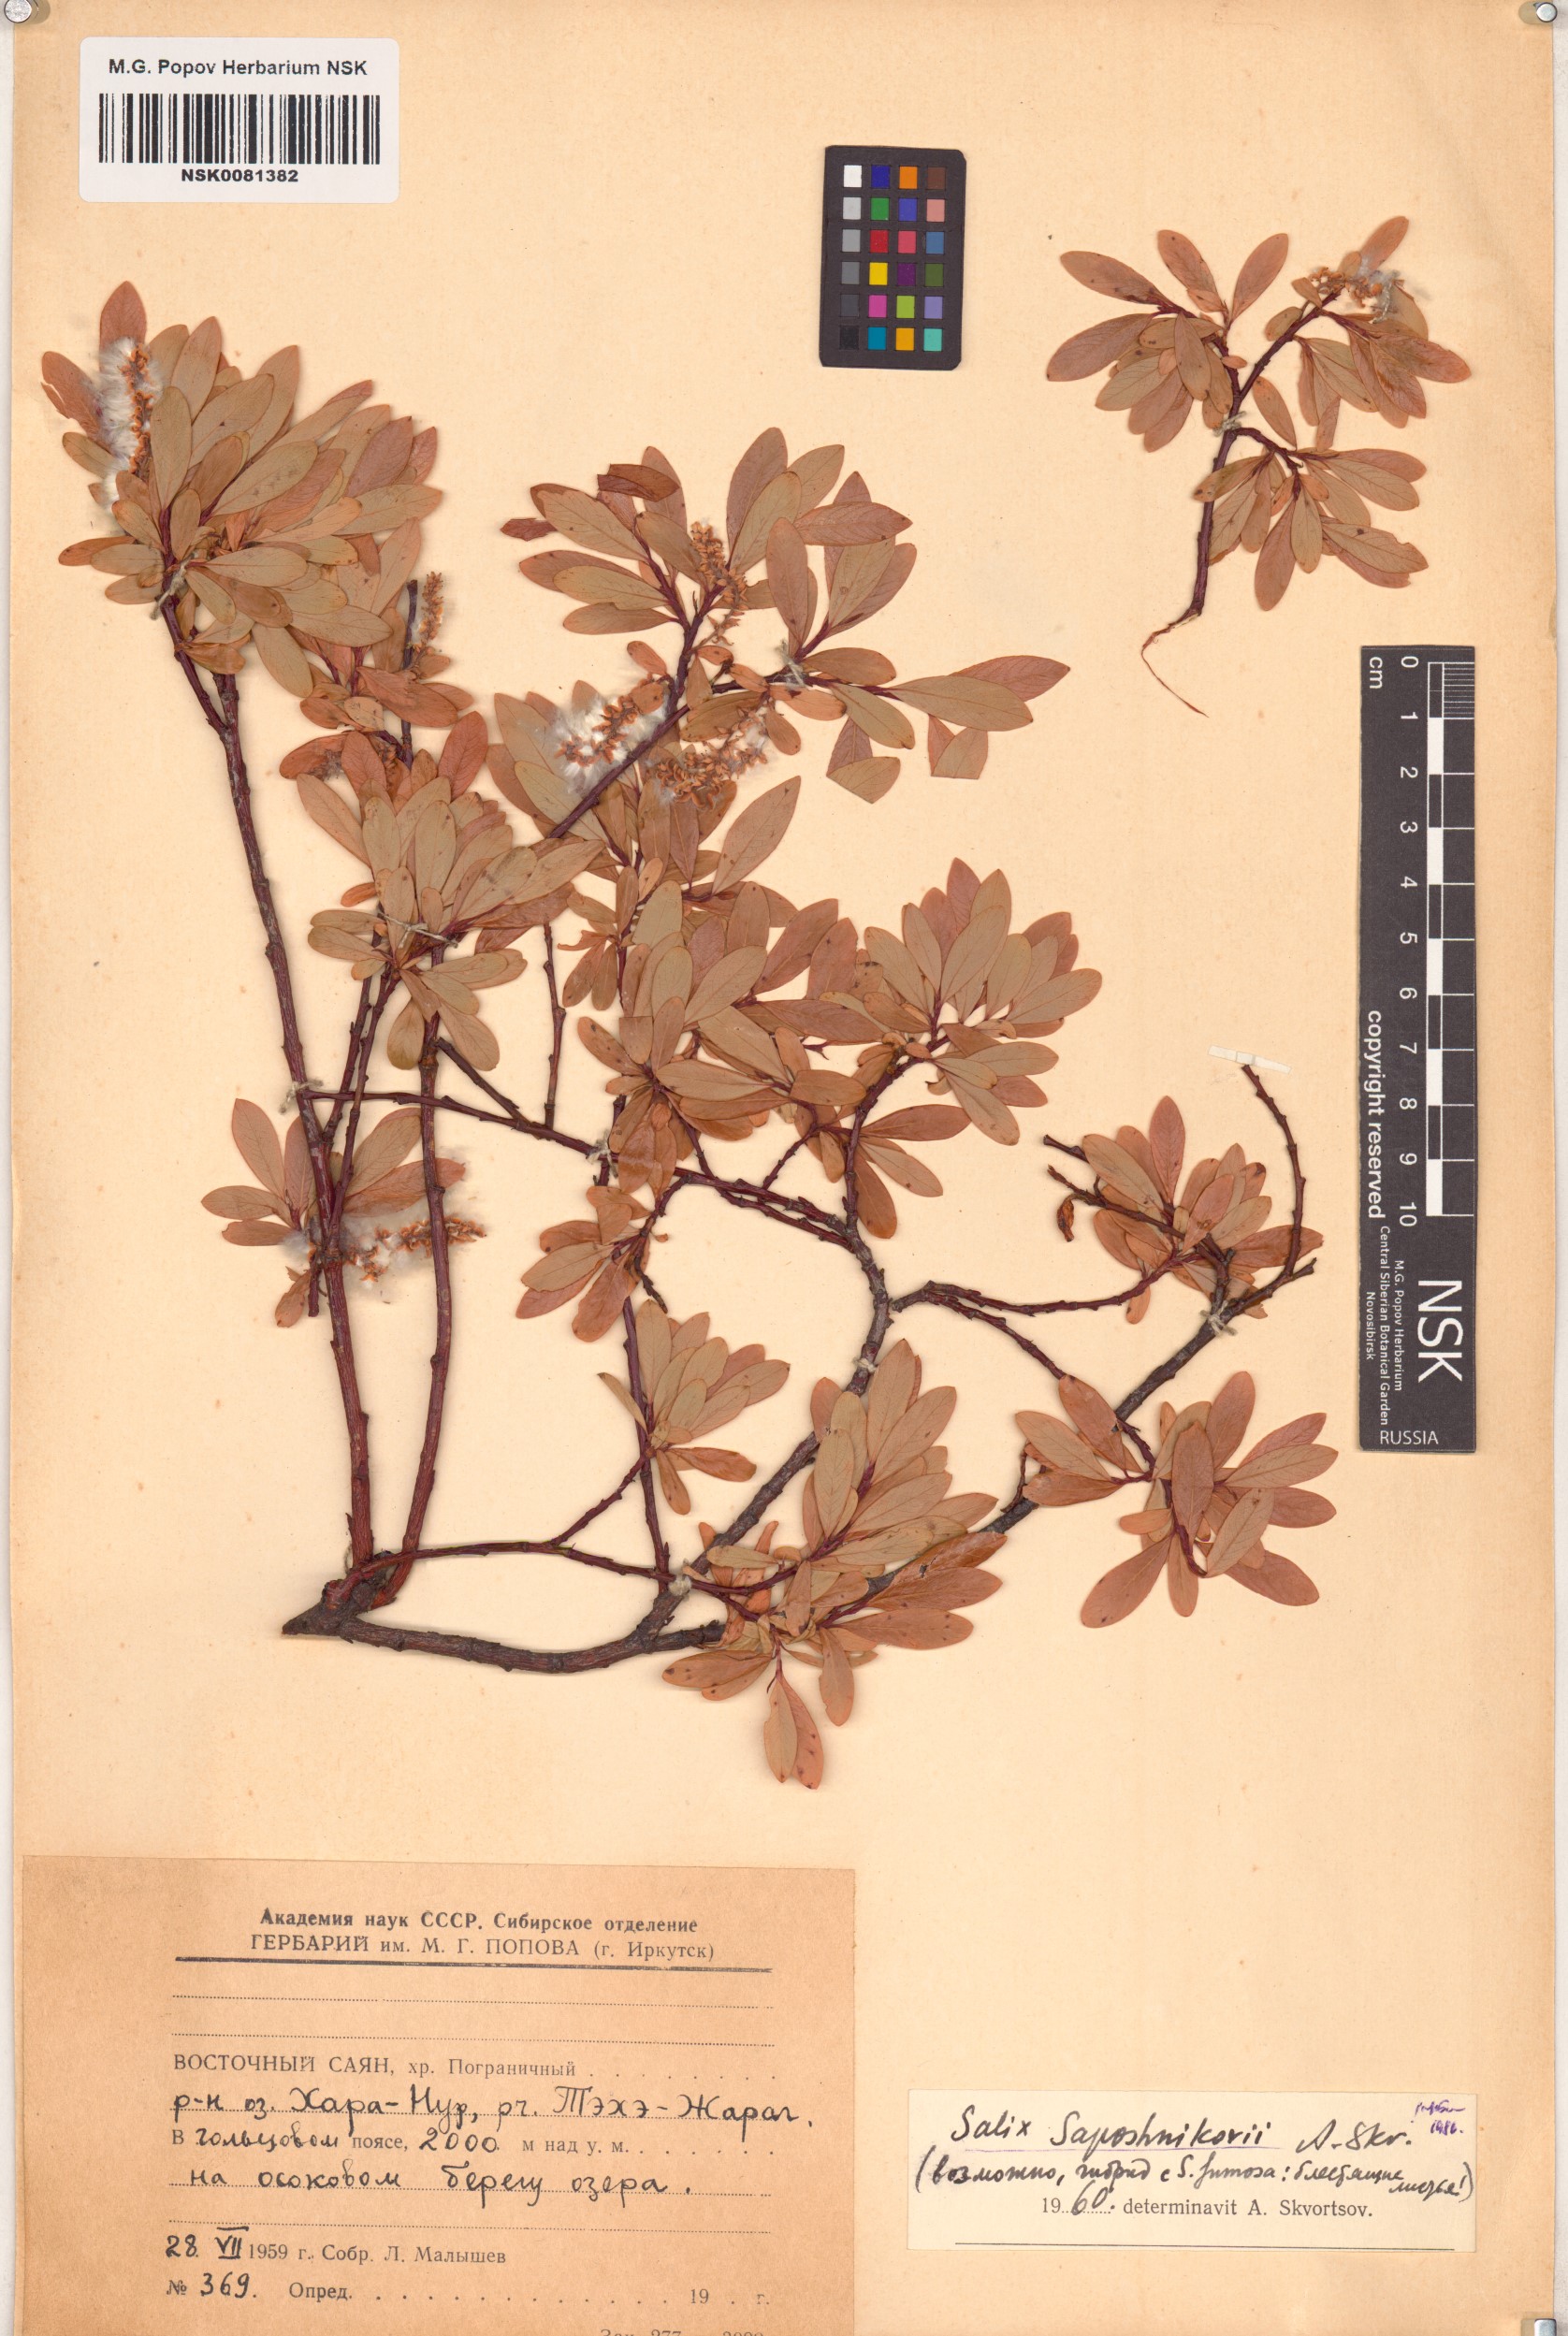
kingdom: Plantae
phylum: Tracheophyta
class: Magnoliopsida
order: Malpighiales
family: Salicaceae
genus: Salix
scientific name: Salix saposhnikovii
